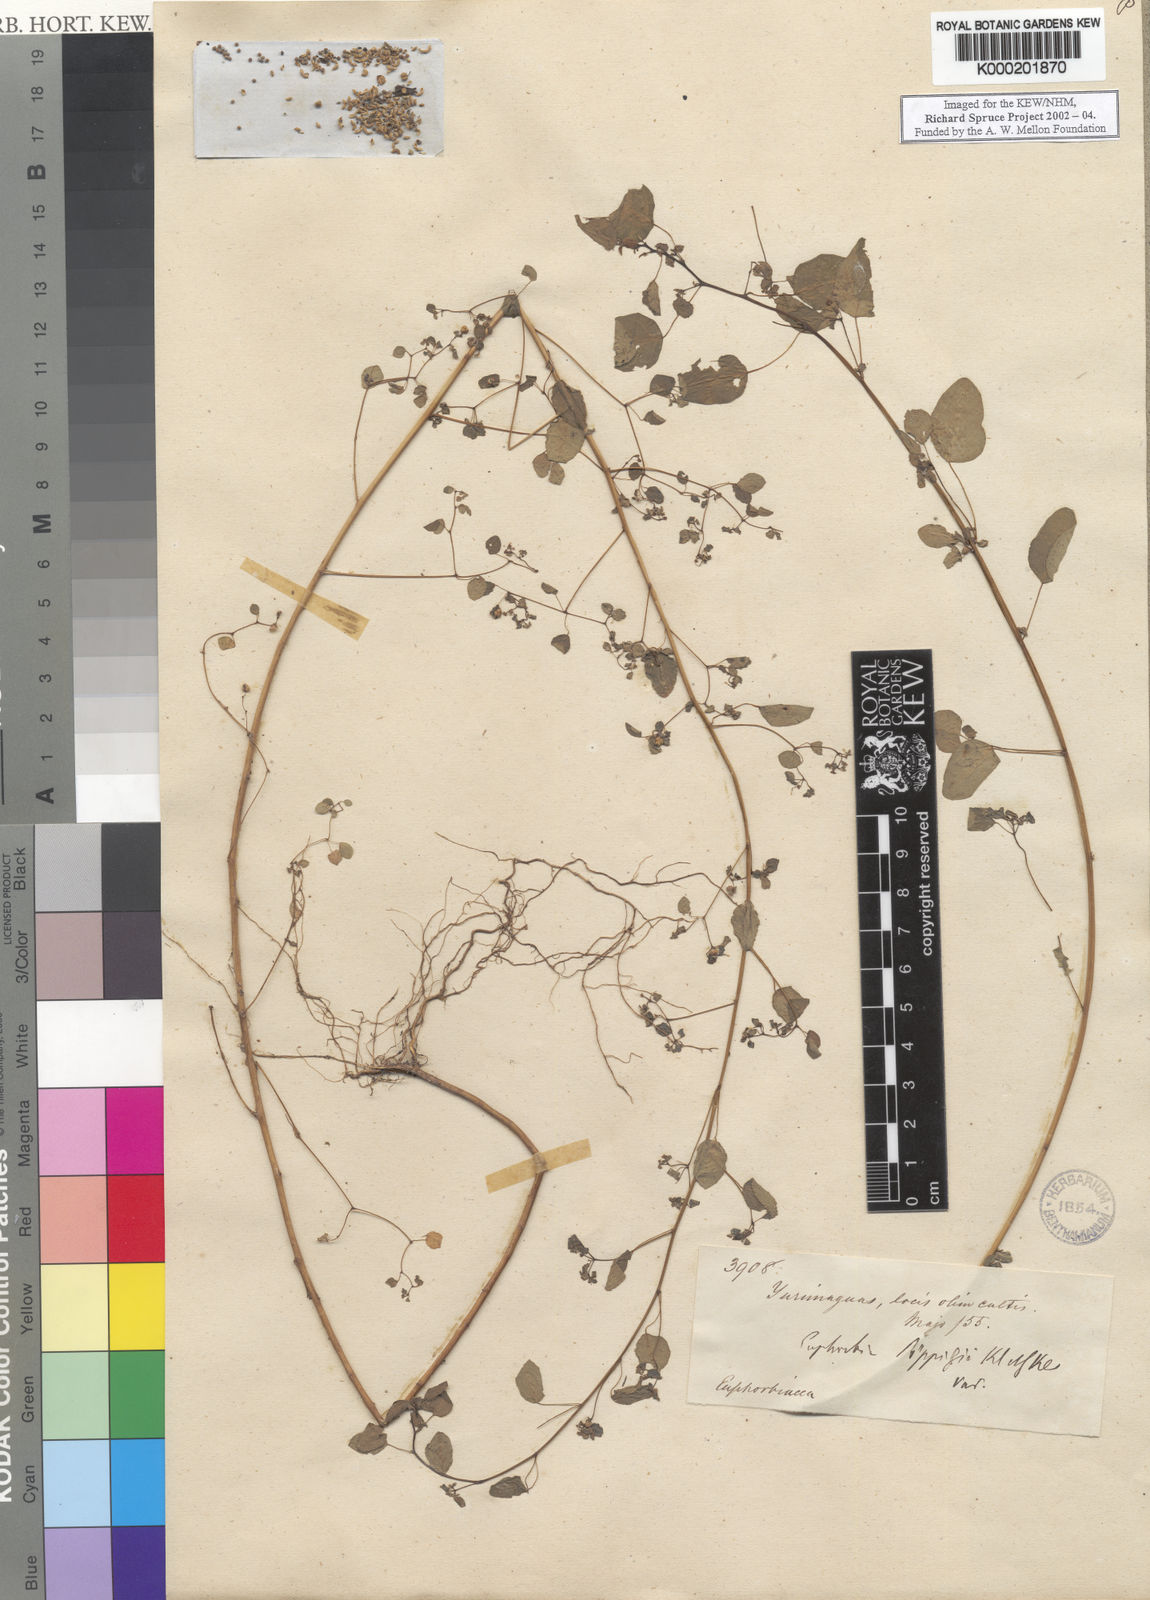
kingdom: Plantae
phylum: Tracheophyta
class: Magnoliopsida
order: Malpighiales
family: Euphorbiaceae
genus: Euphorbia
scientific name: Euphorbia
